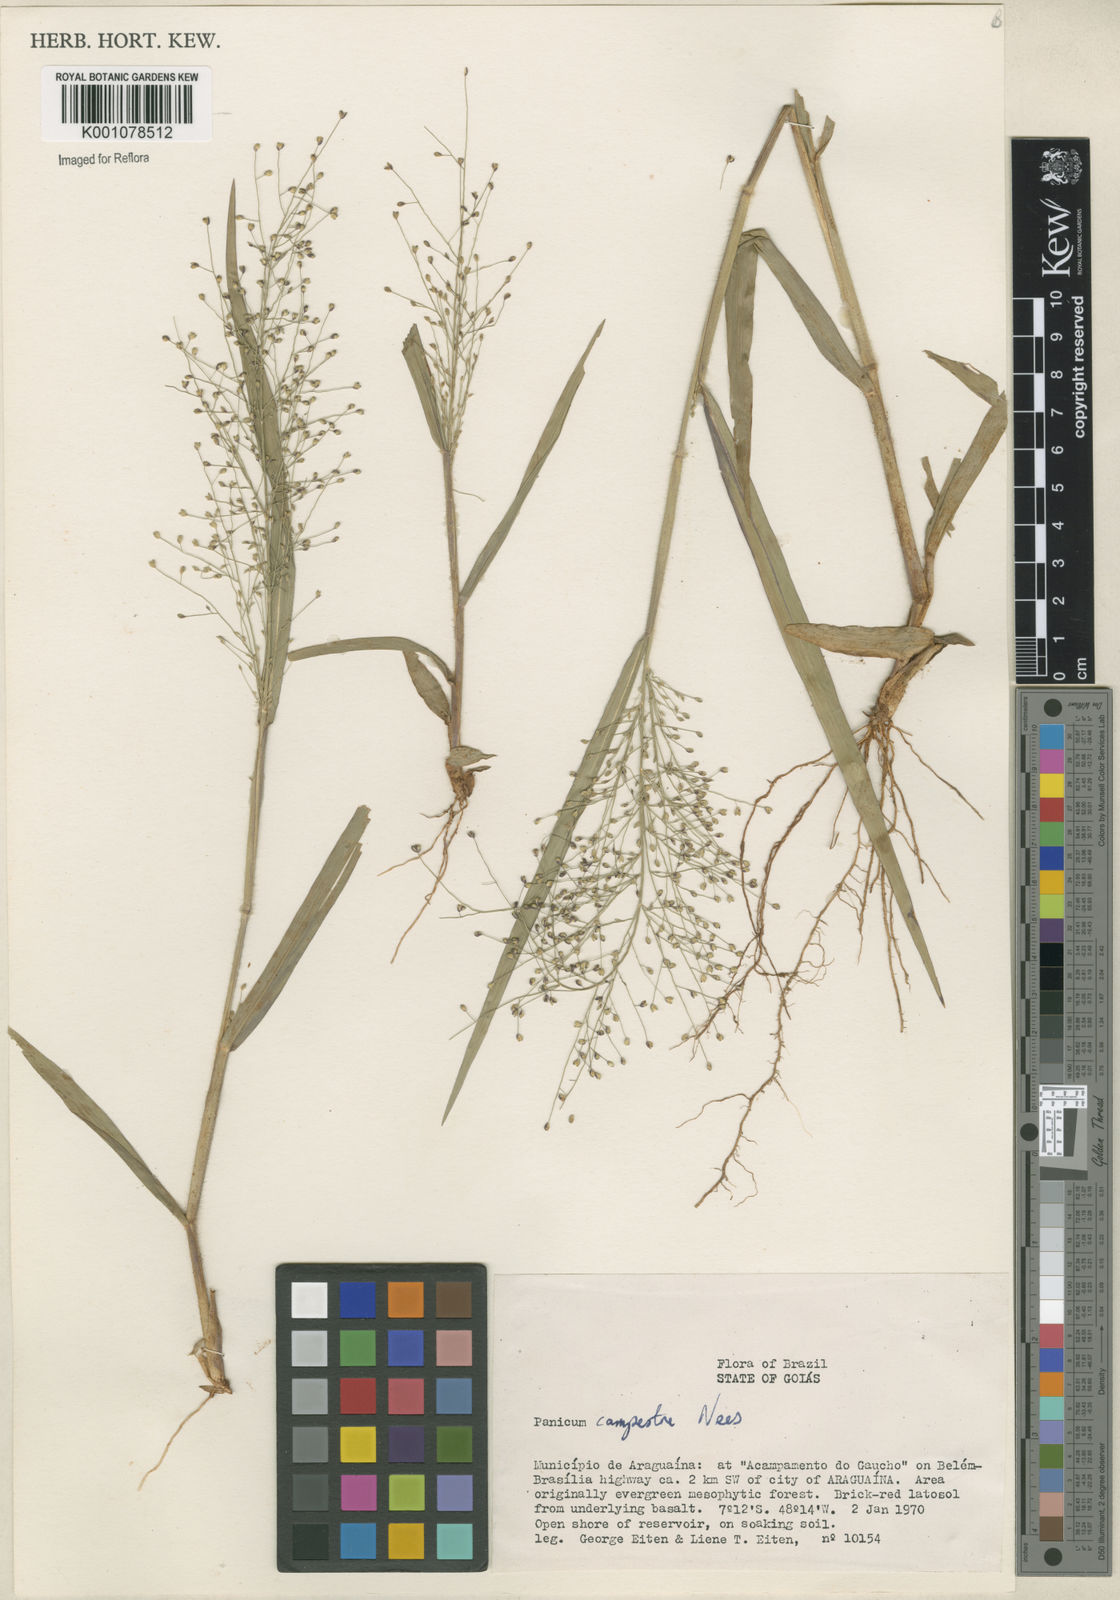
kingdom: Plantae
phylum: Tracheophyta
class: Liliopsida
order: Poales
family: Poaceae
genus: Panicum
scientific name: Panicum campestre
